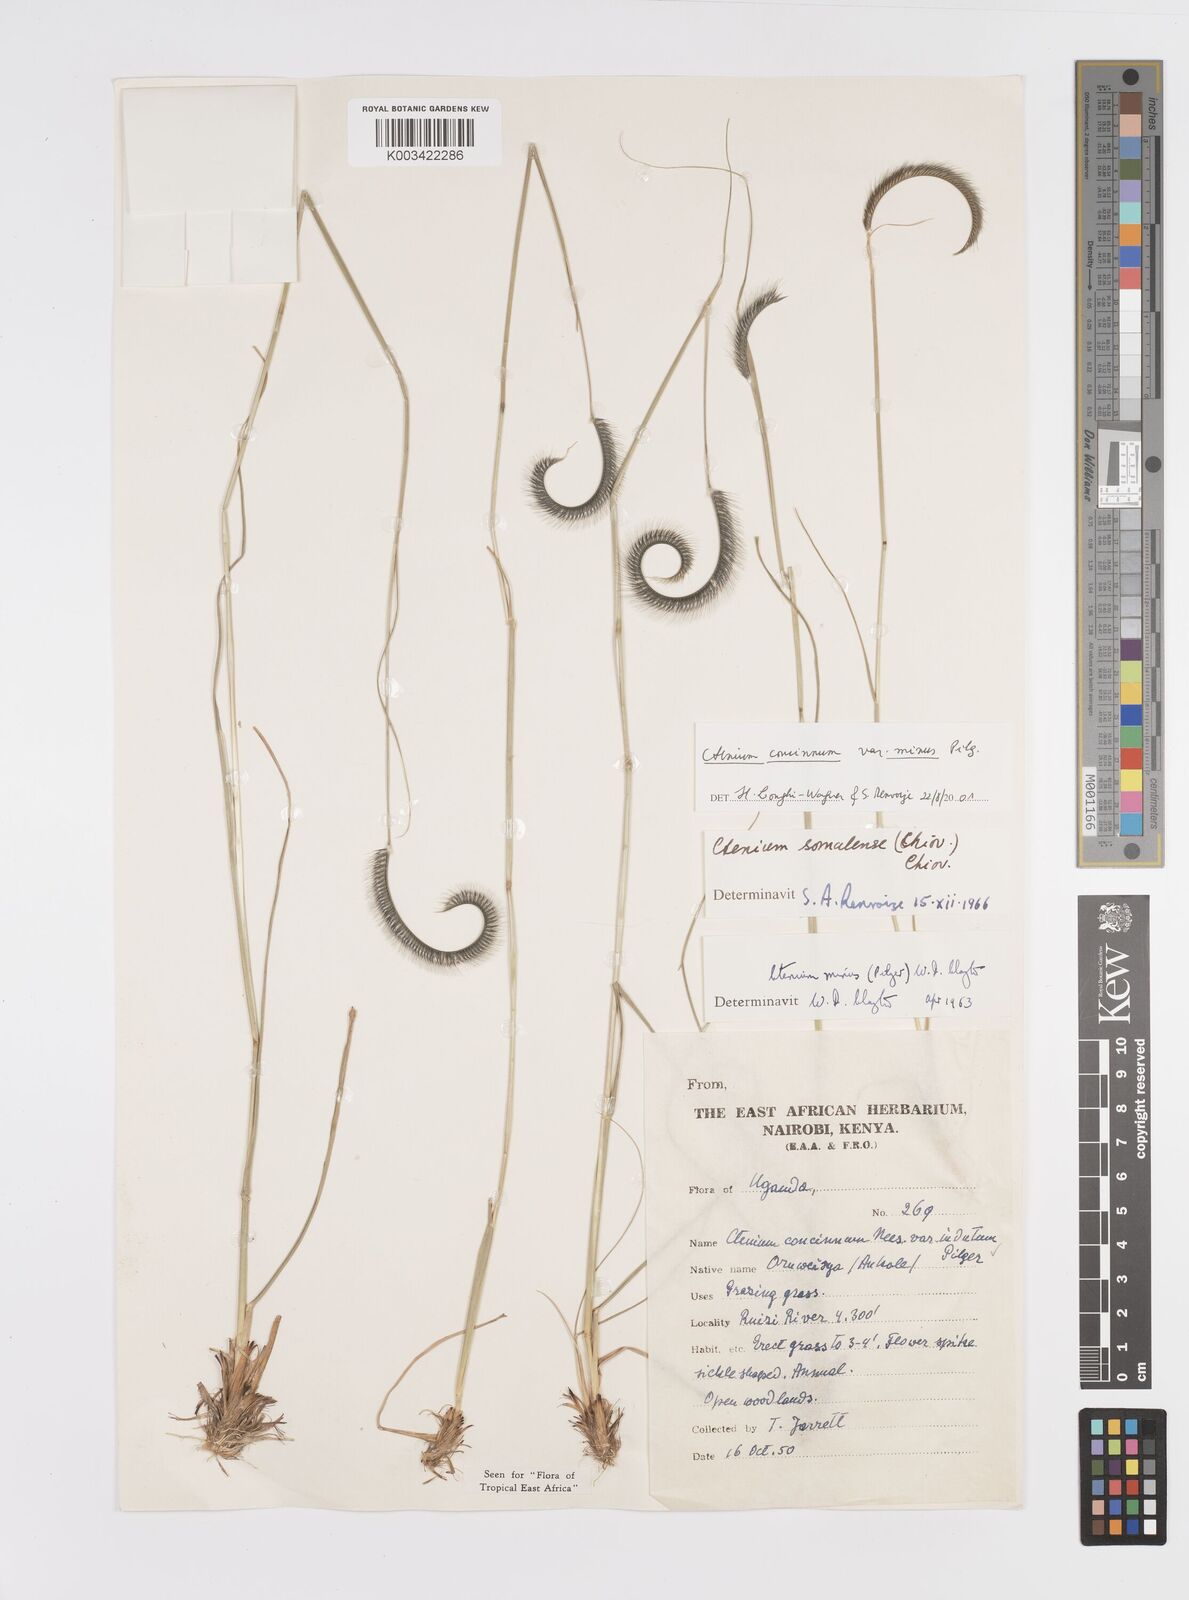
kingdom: Plantae
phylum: Tracheophyta
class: Liliopsida
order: Poales
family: Poaceae
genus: Ctenium
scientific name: Ctenium concinnum
